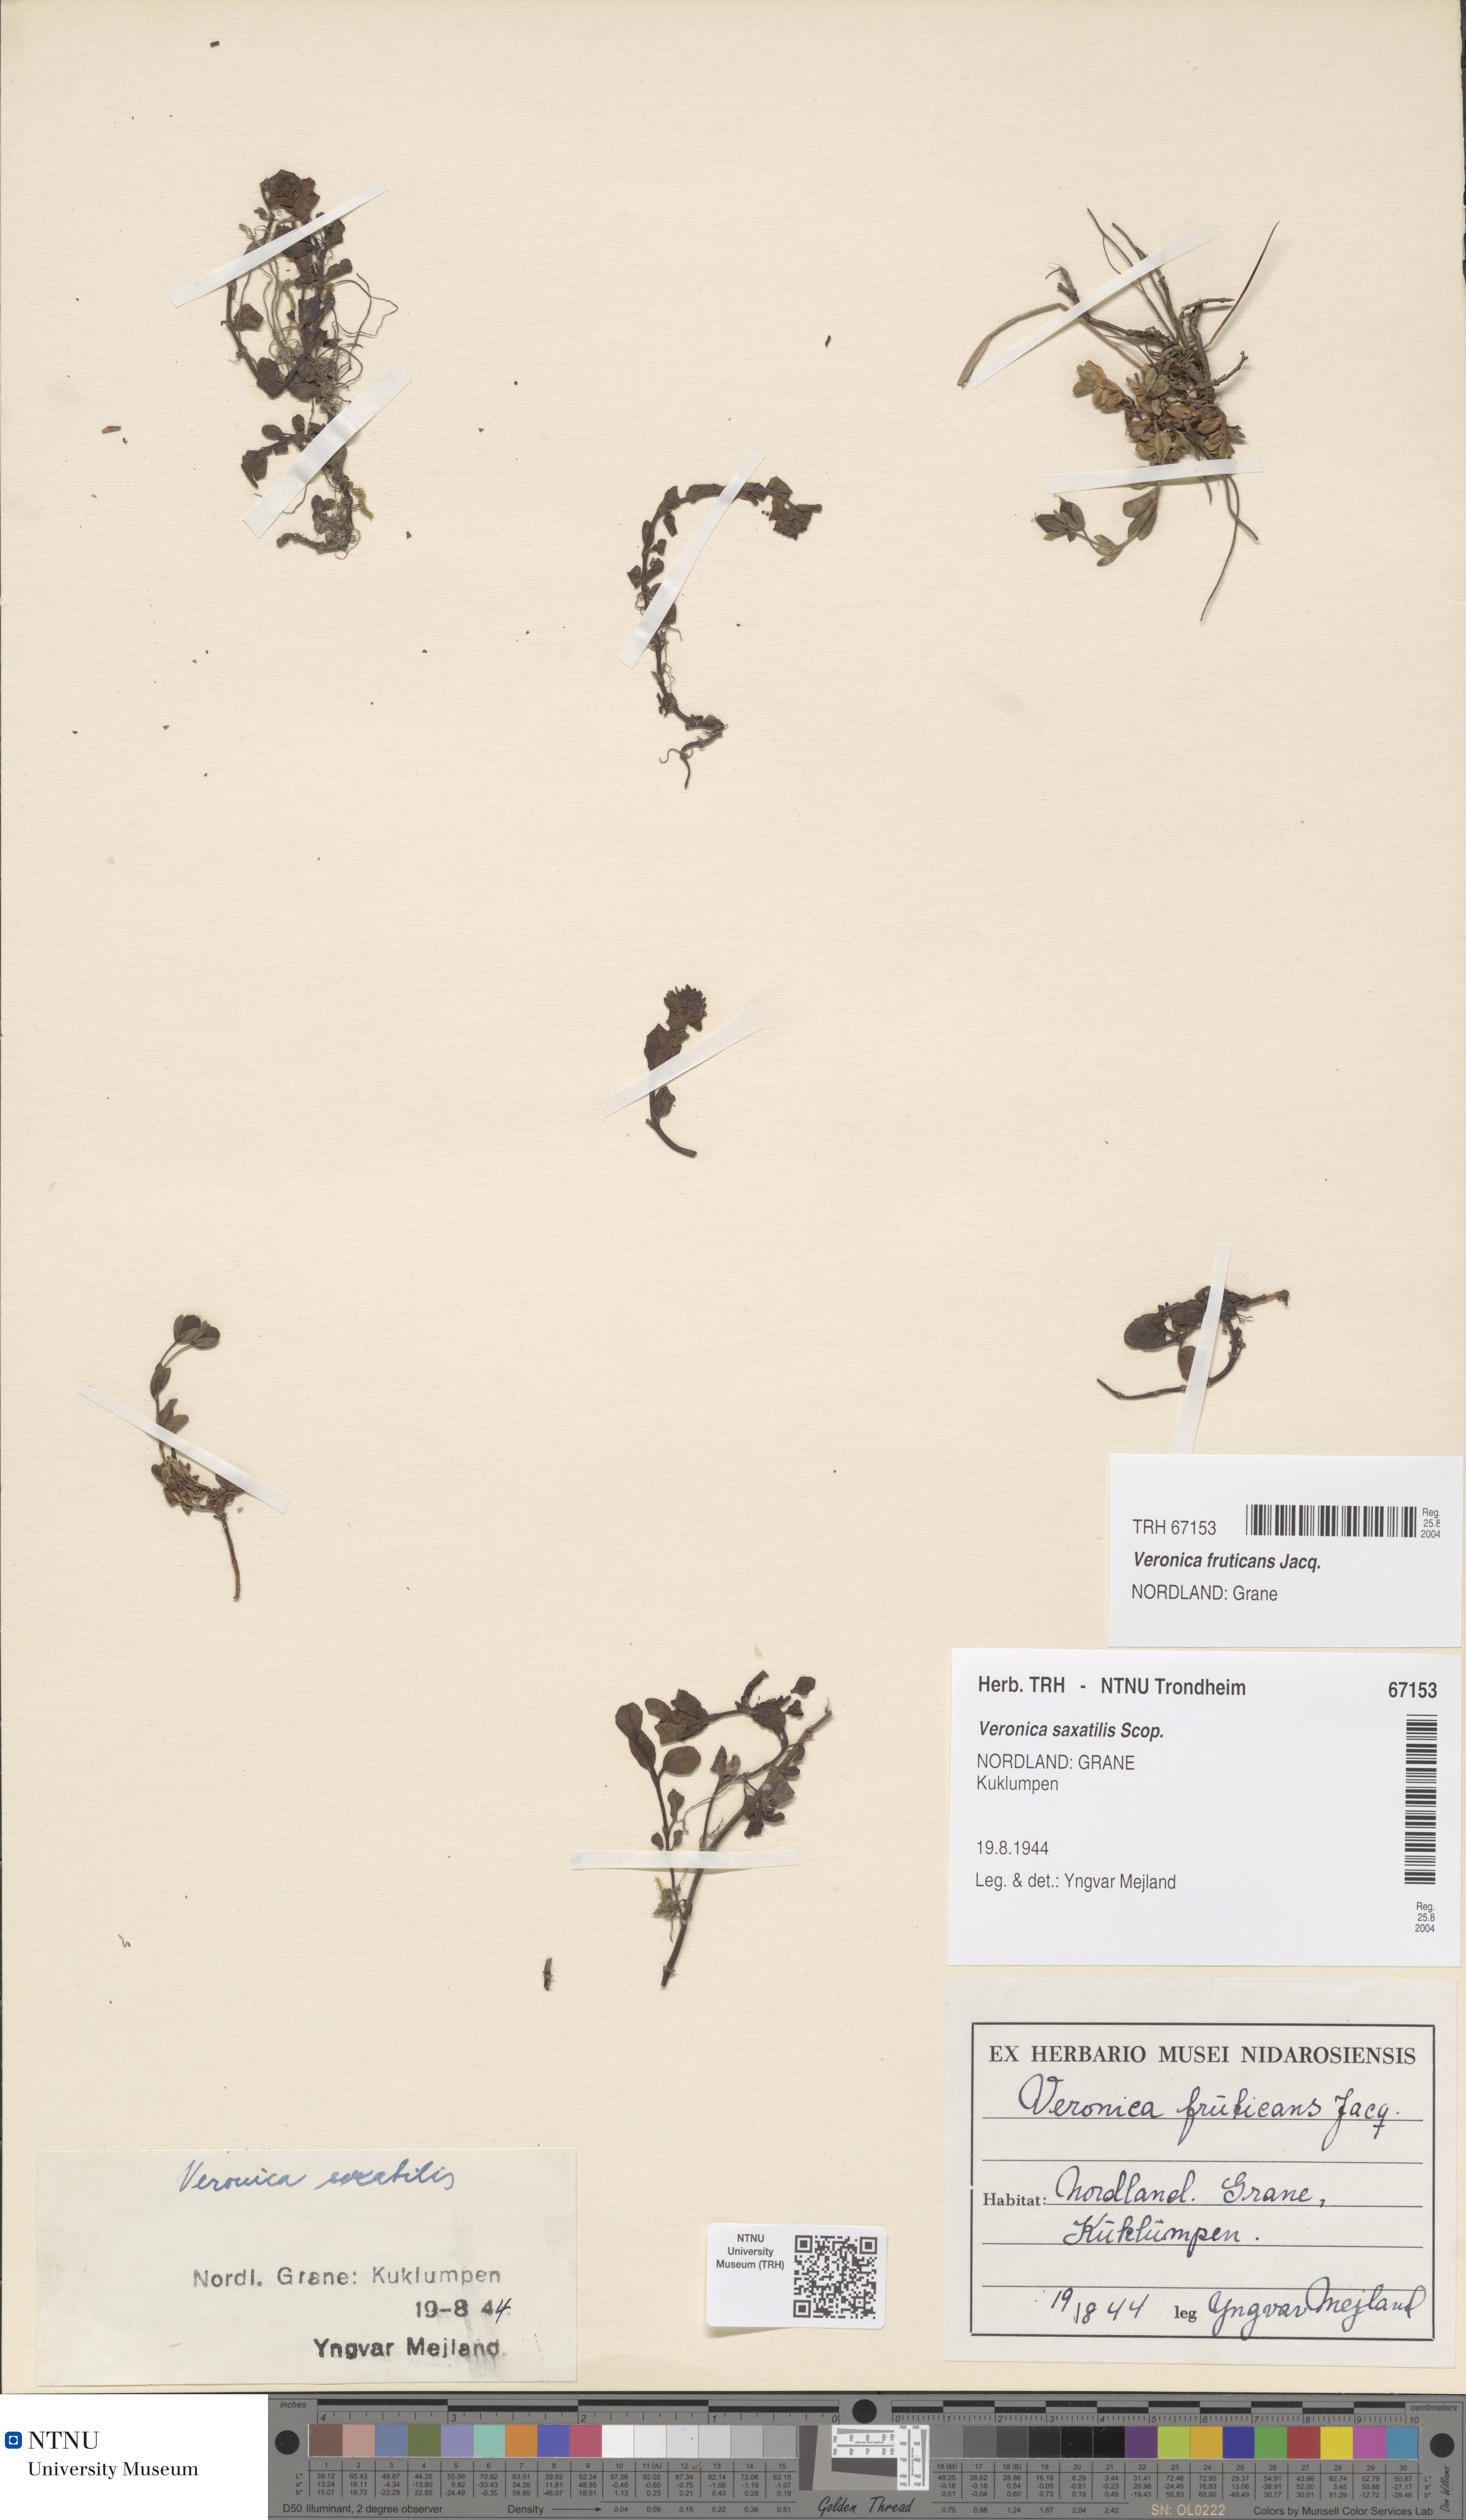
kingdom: Plantae
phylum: Tracheophyta
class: Magnoliopsida
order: Lamiales
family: Plantaginaceae
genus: Veronica
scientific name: Veronica fruticans
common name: Rock speedwell
